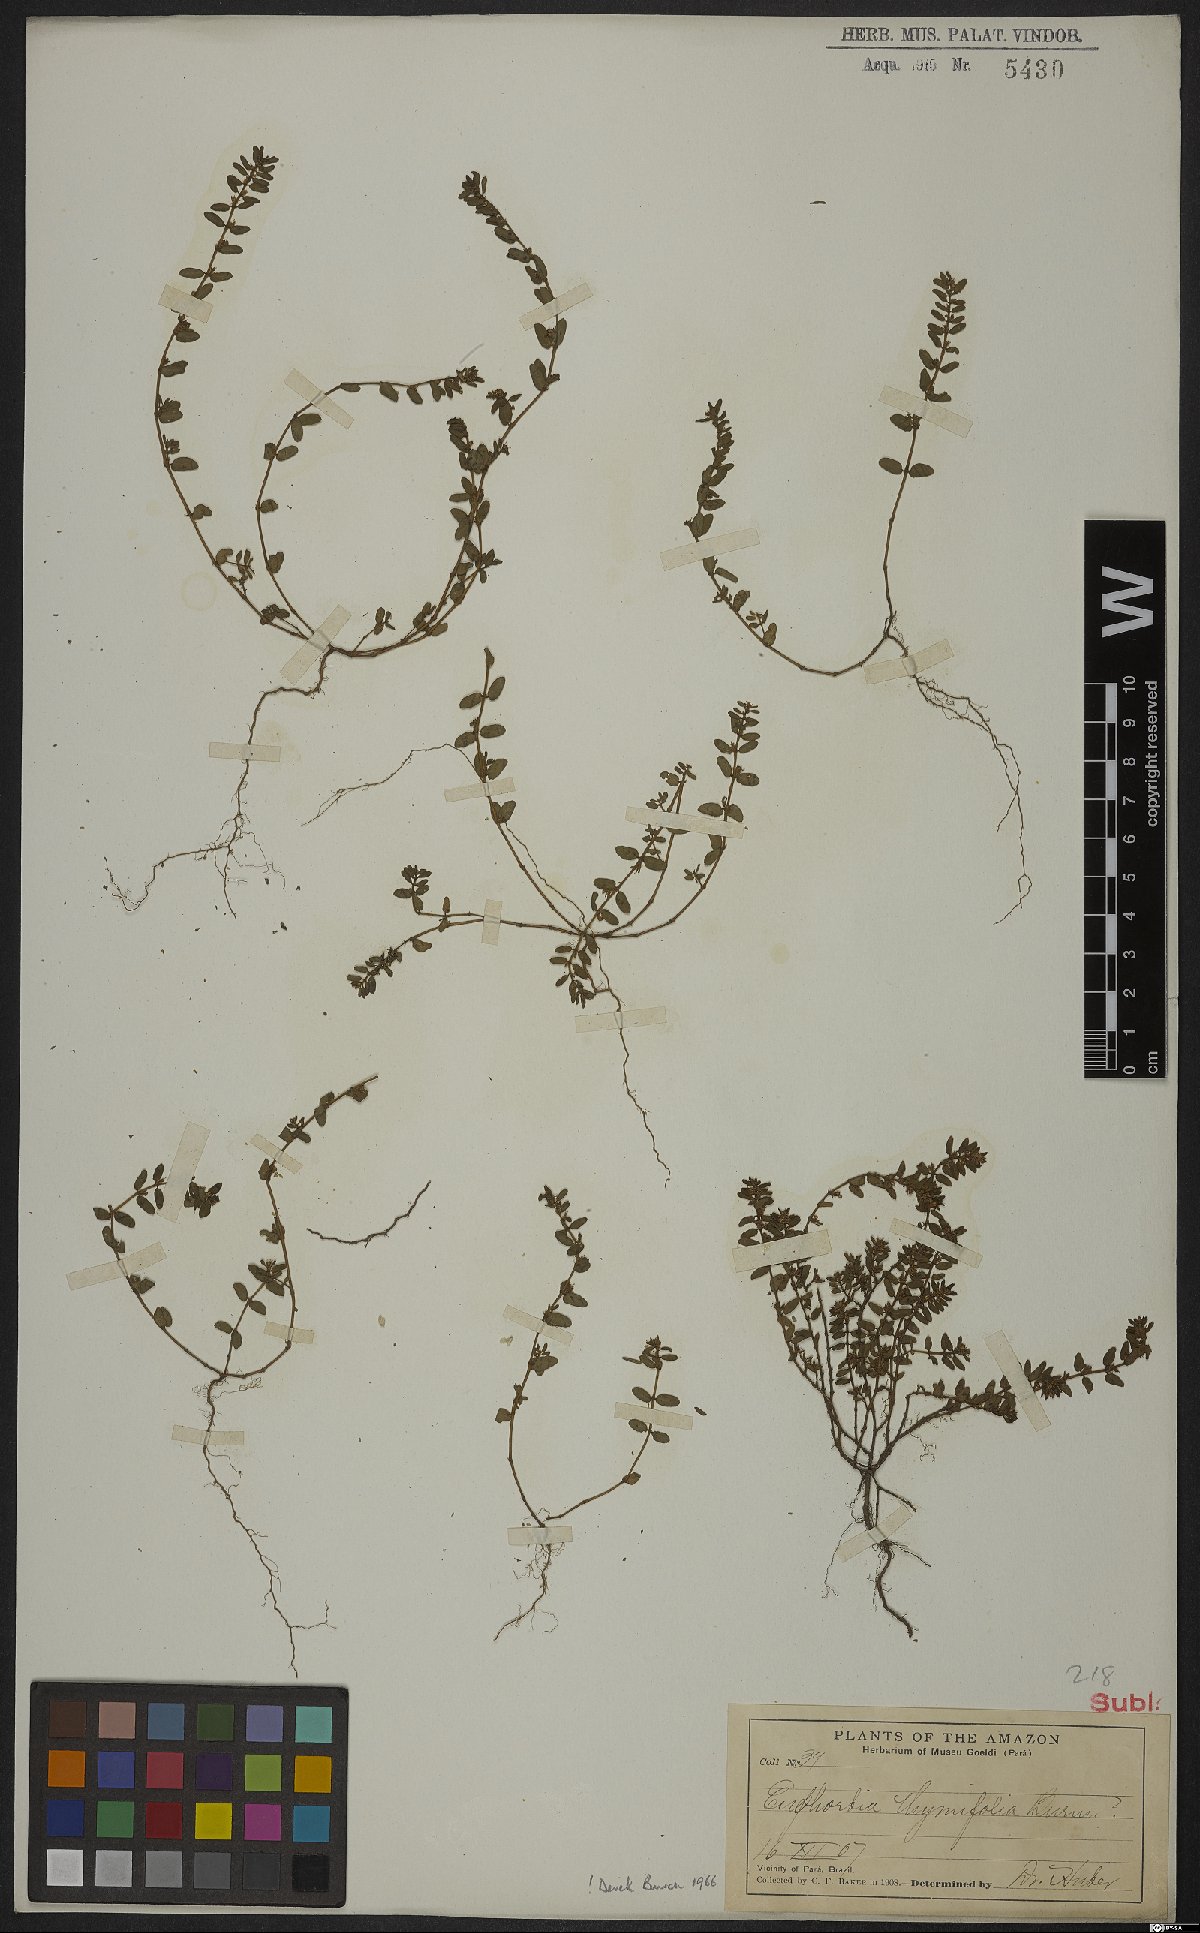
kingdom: Plantae
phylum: Tracheophyta
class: Magnoliopsida
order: Malpighiales
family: Euphorbiaceae
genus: Euphorbia
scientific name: Euphorbia scordiifolia
